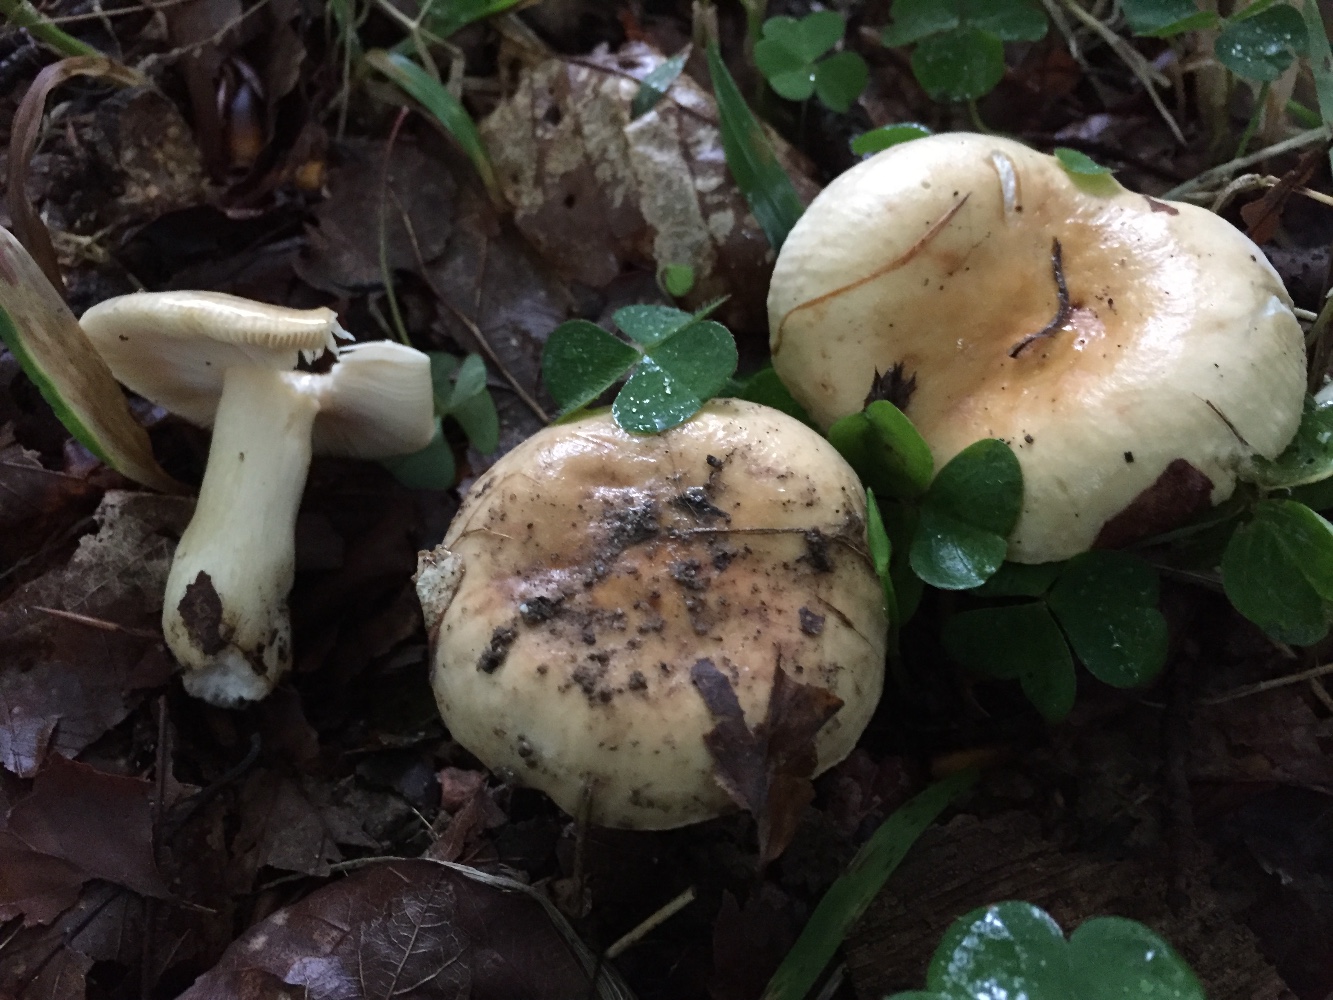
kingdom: Fungi
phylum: Basidiomycota
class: Agaricomycetes
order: Russulales
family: Russulaceae
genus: Russula
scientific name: Russula fellea
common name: galde-skørhat
